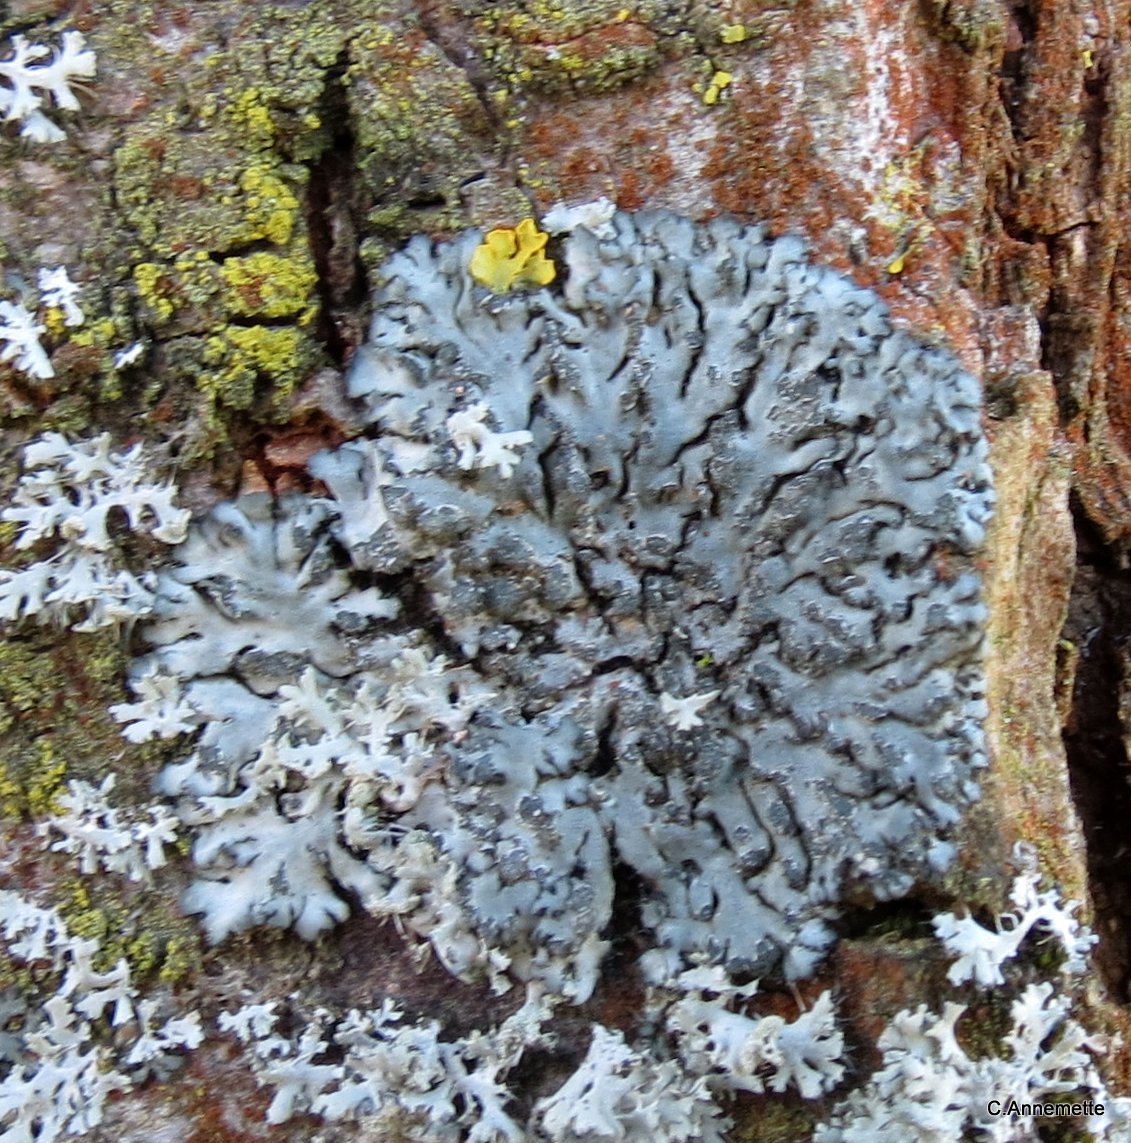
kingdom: Fungi
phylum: Ascomycota
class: Lecanoromycetes
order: Caliciales
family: Physciaceae
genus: Phaeophyscia
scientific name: Phaeophyscia orbicularis
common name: grågrøn rosetlav
